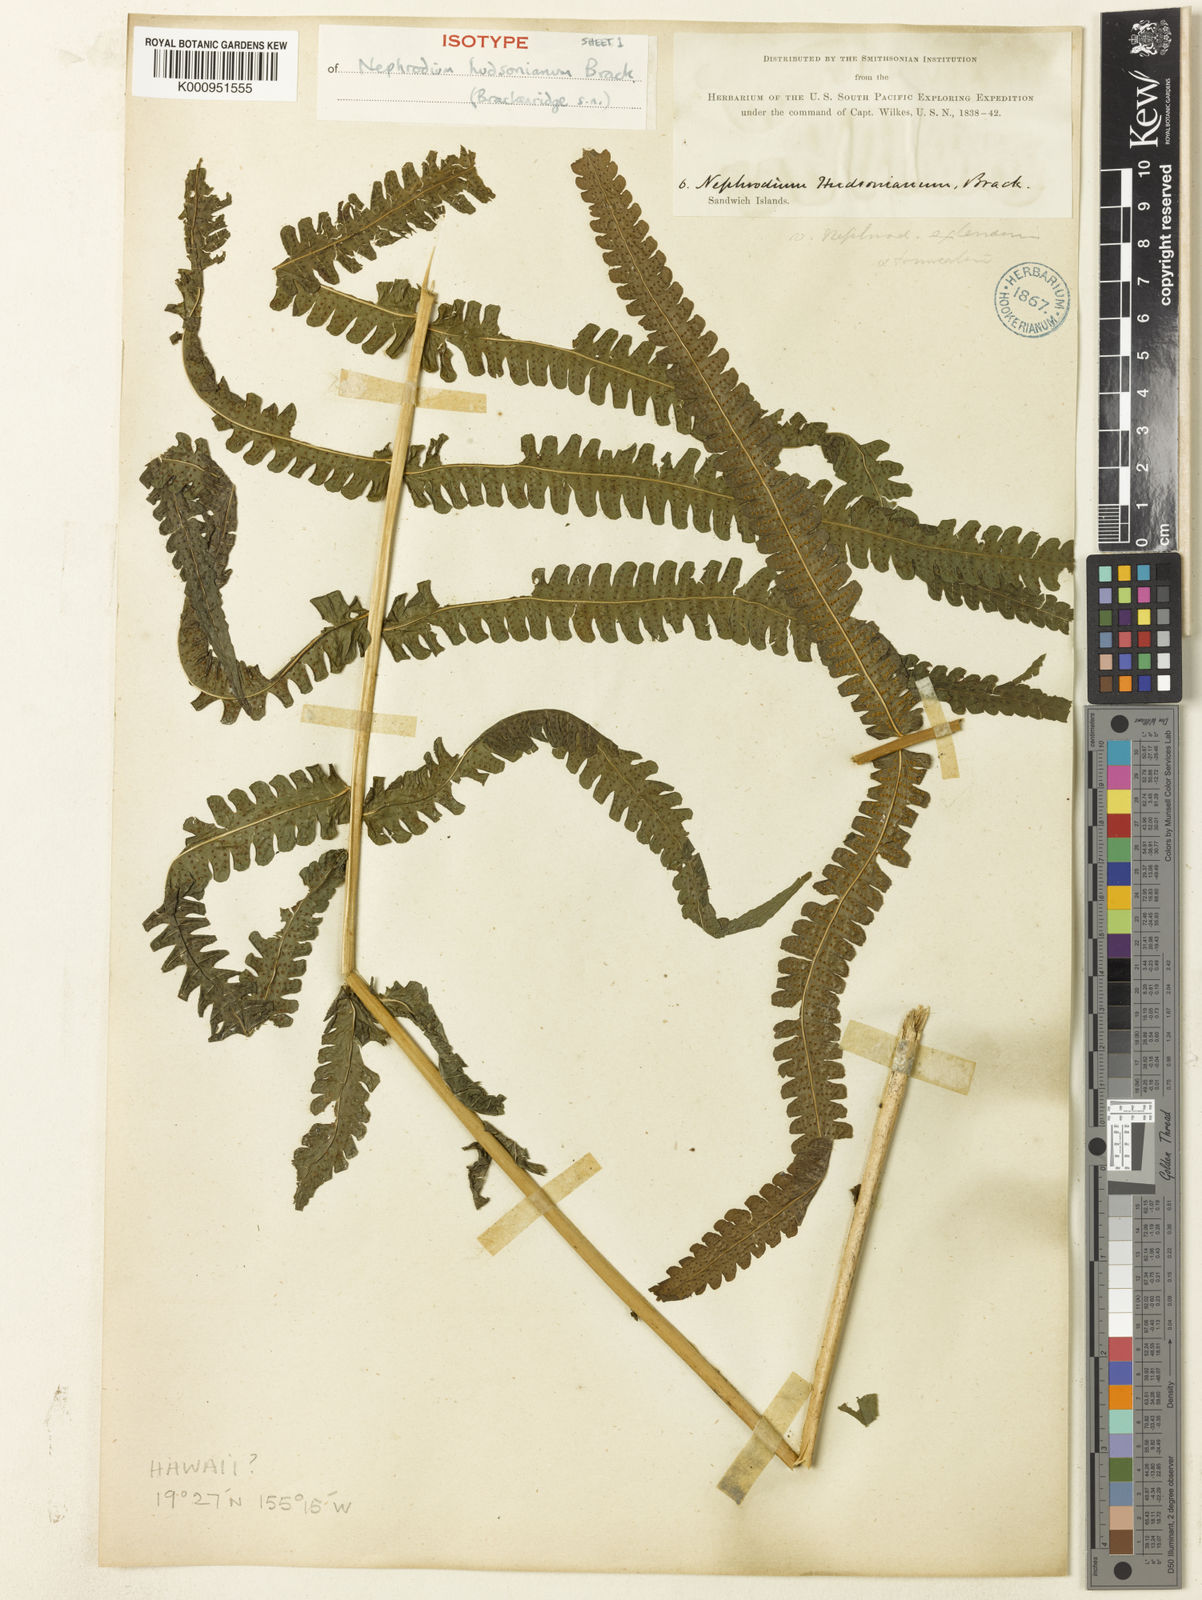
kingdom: Plantae
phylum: Tracheophyta
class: Polypodiopsida
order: Polypodiales
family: Thelypteridaceae
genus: Reholttumia
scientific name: Reholttumia hudsoniana
